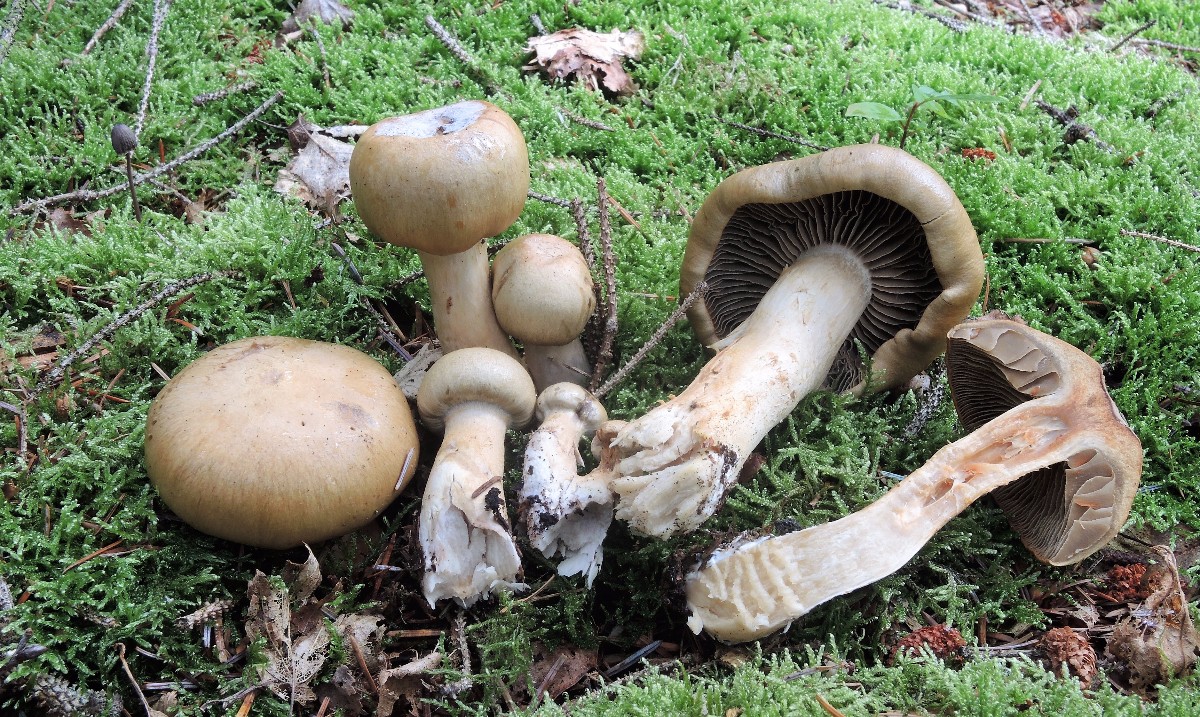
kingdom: Fungi
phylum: Basidiomycota
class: Agaricomycetes
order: Agaricales
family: Cortinariaceae
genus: Cortinarius
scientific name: Cortinarius subtortus
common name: olivengul slørhat
